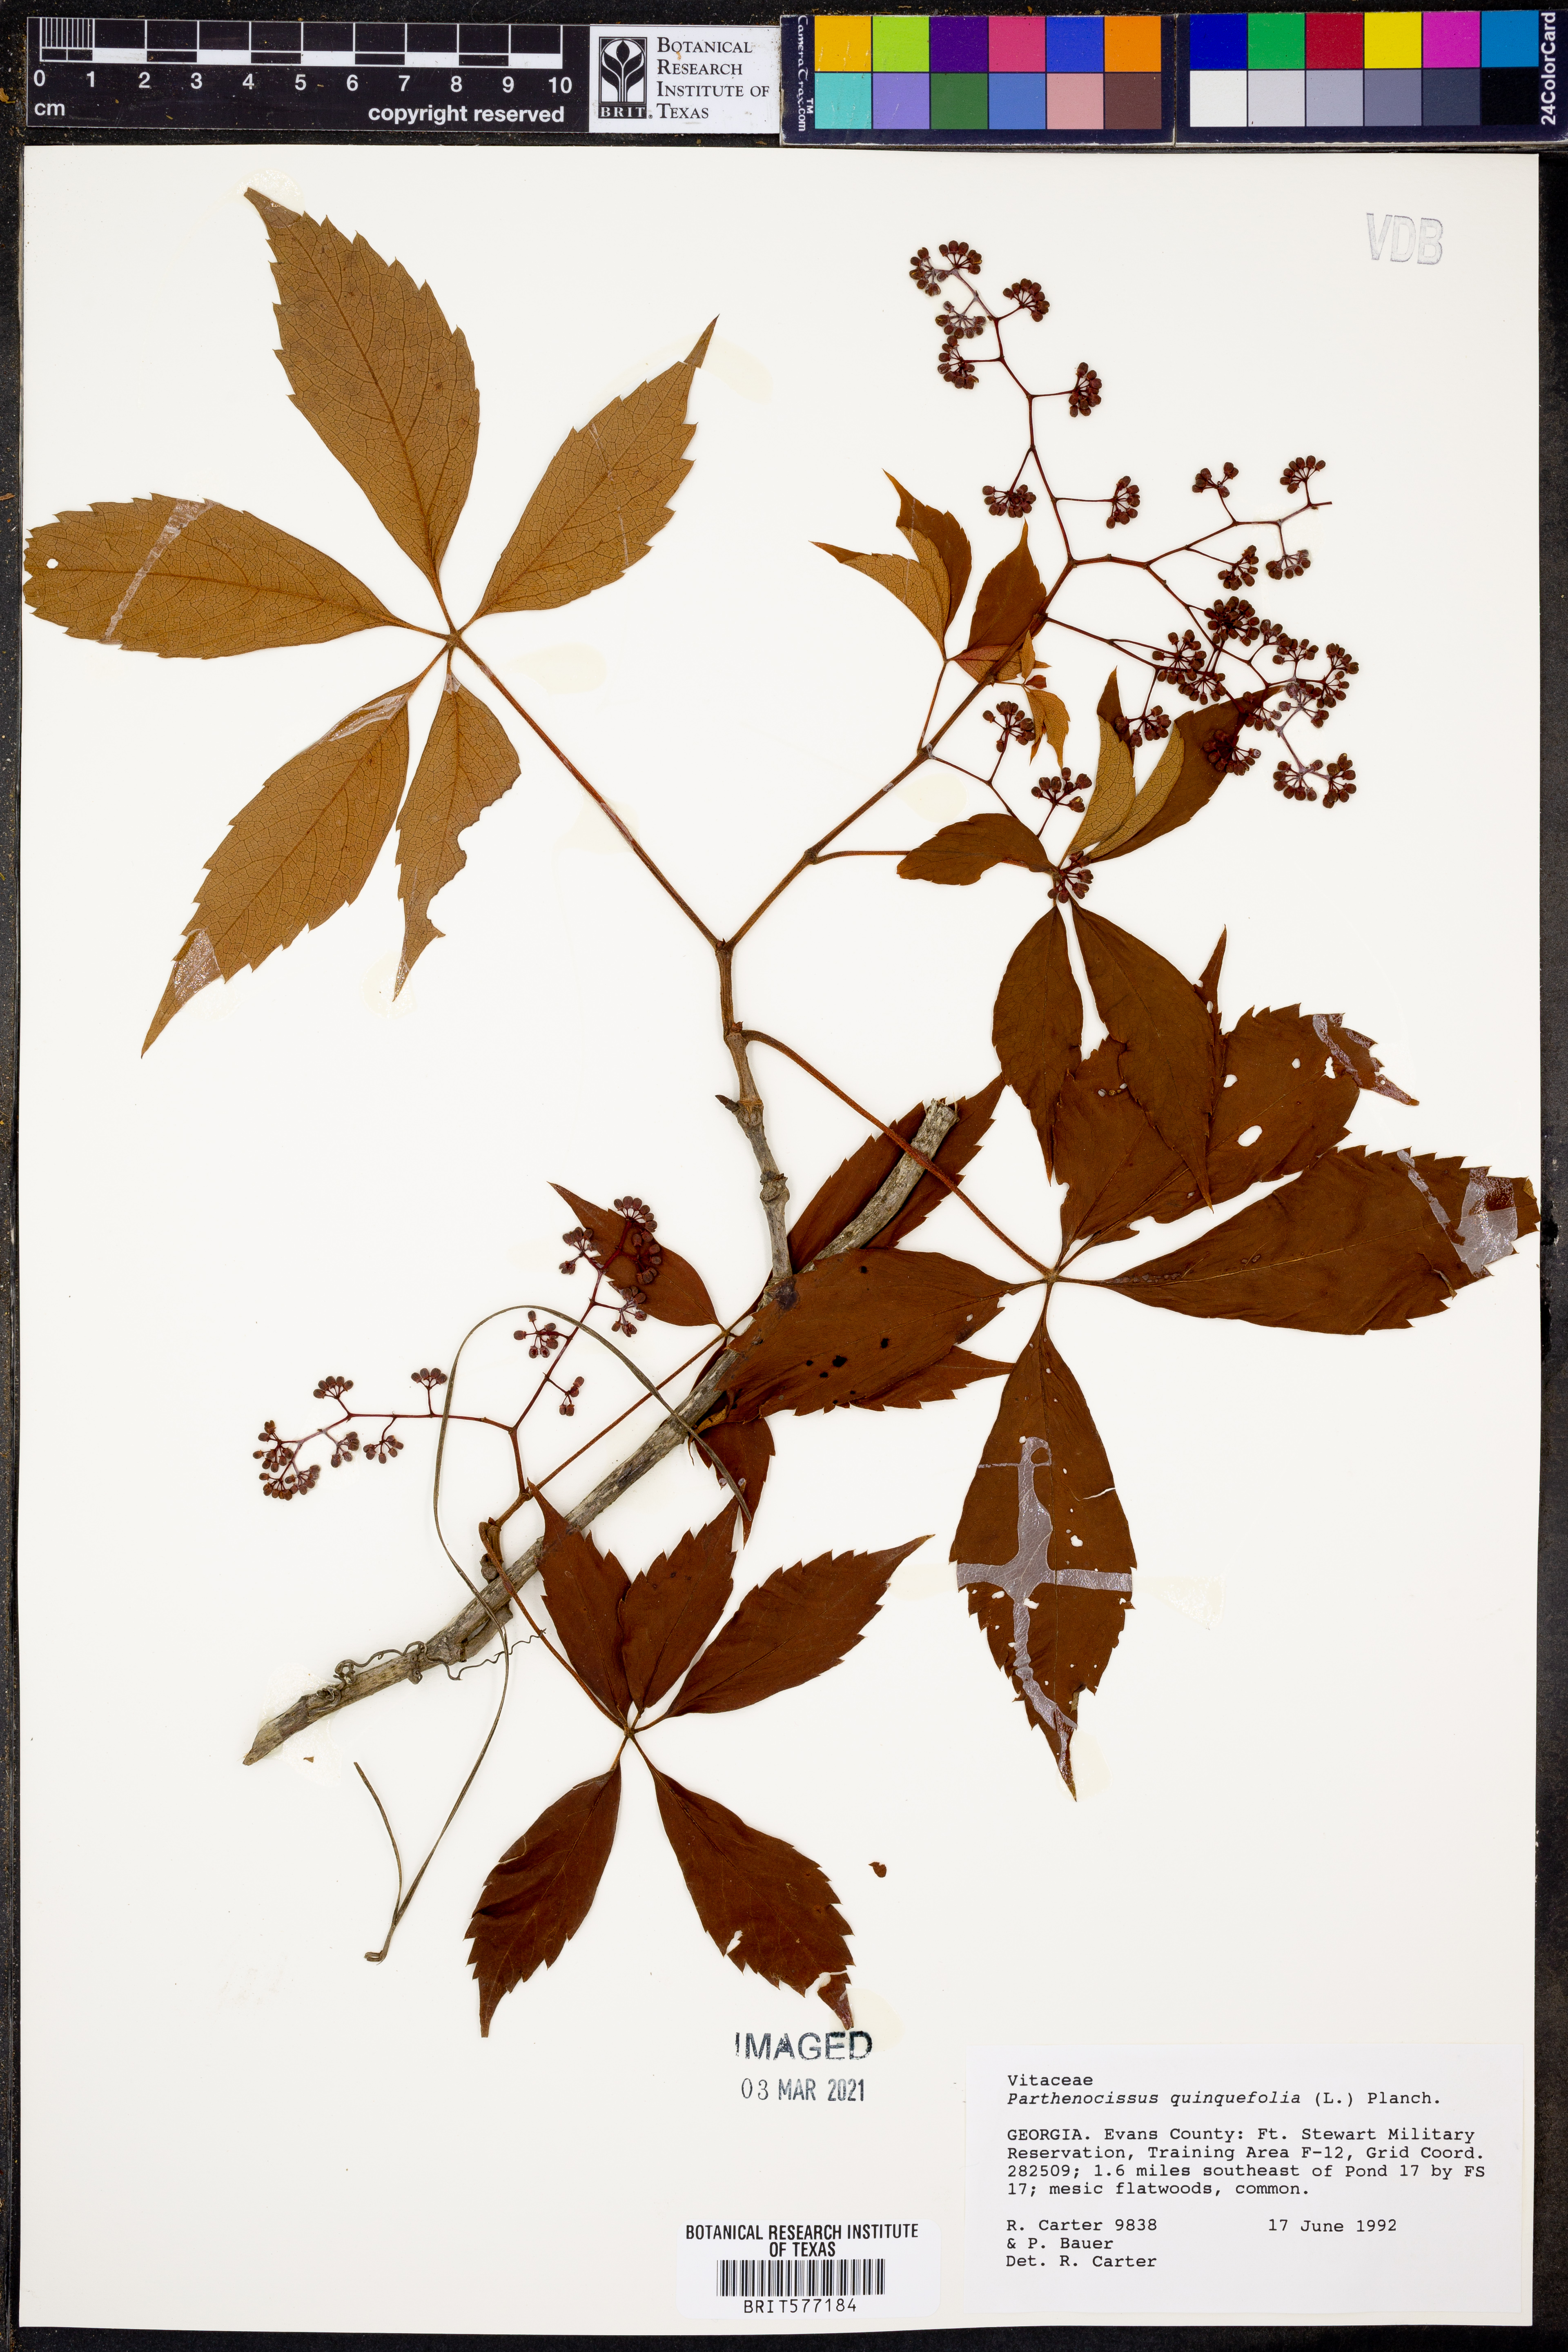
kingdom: Plantae
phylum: Tracheophyta
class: Magnoliopsida
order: Vitales
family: Vitaceae
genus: Parthenocissus
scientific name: Parthenocissus quinquefolia
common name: Virginia-creeper
